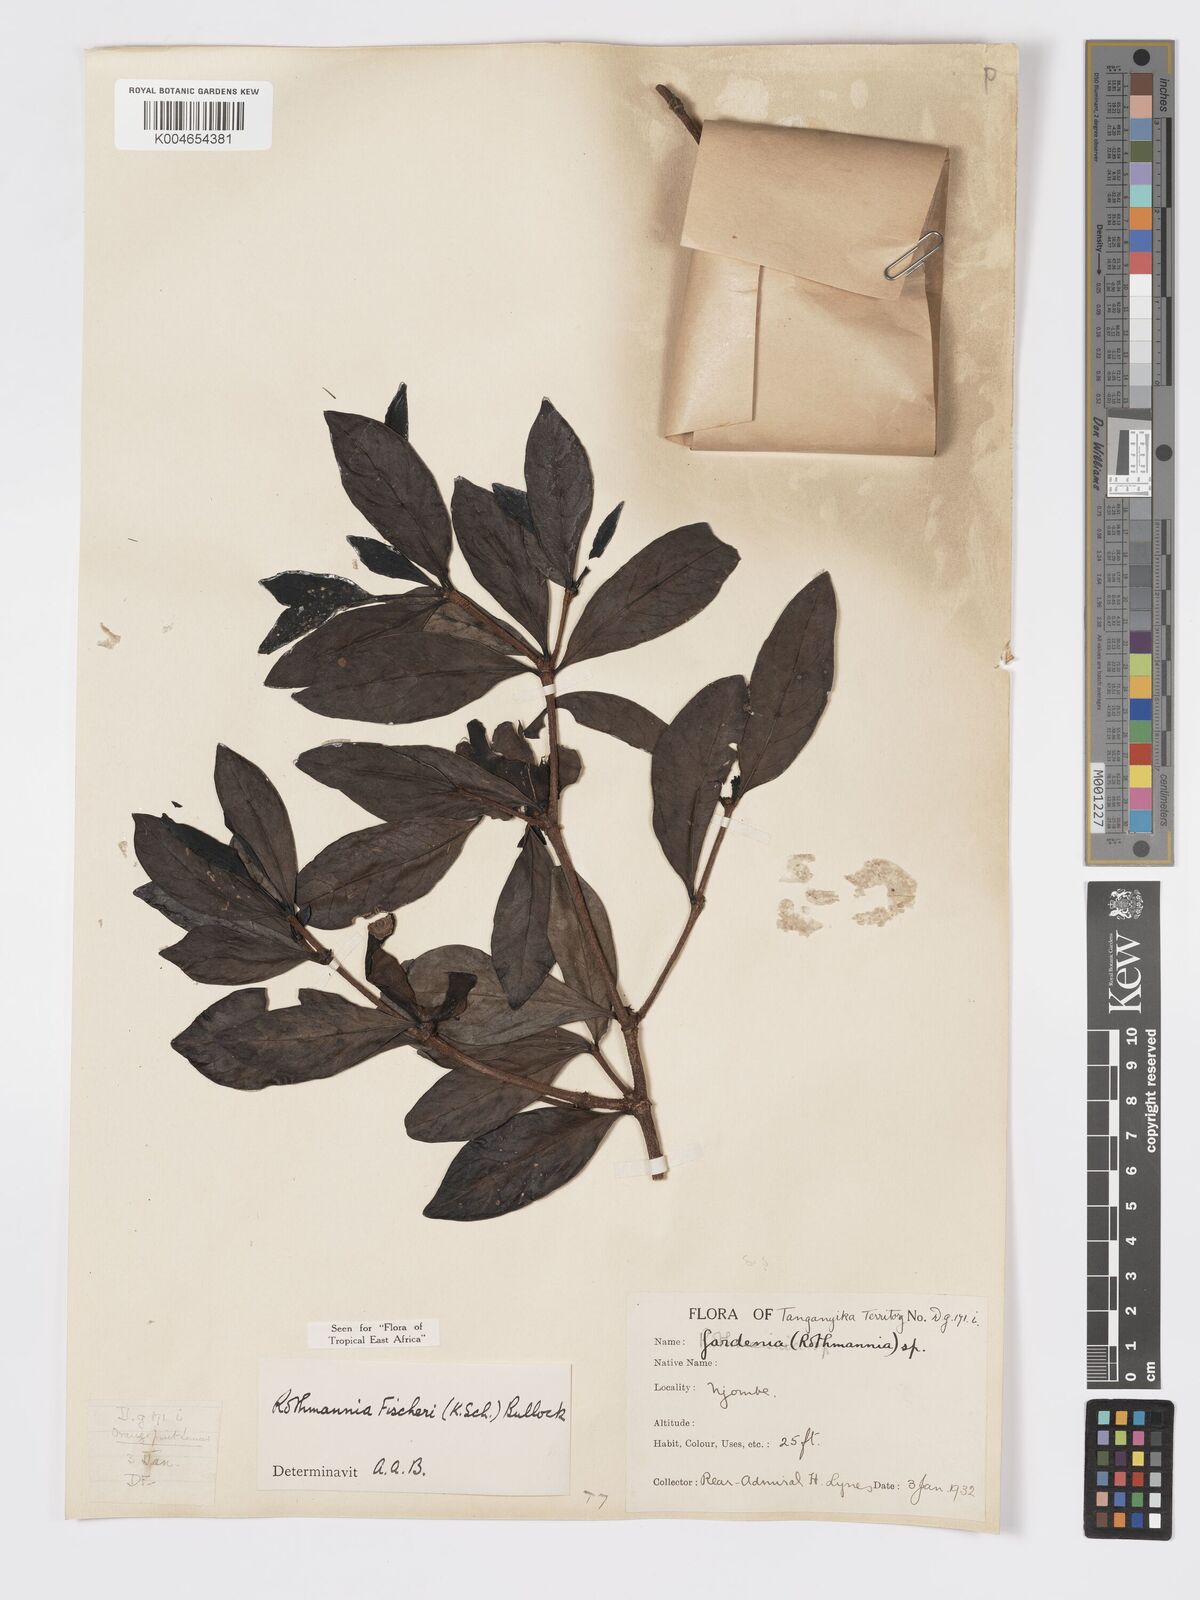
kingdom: Plantae
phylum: Tracheophyta
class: Magnoliopsida
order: Gentianales
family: Rubiaceae
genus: Rothmannia
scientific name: Rothmannia fischeri
